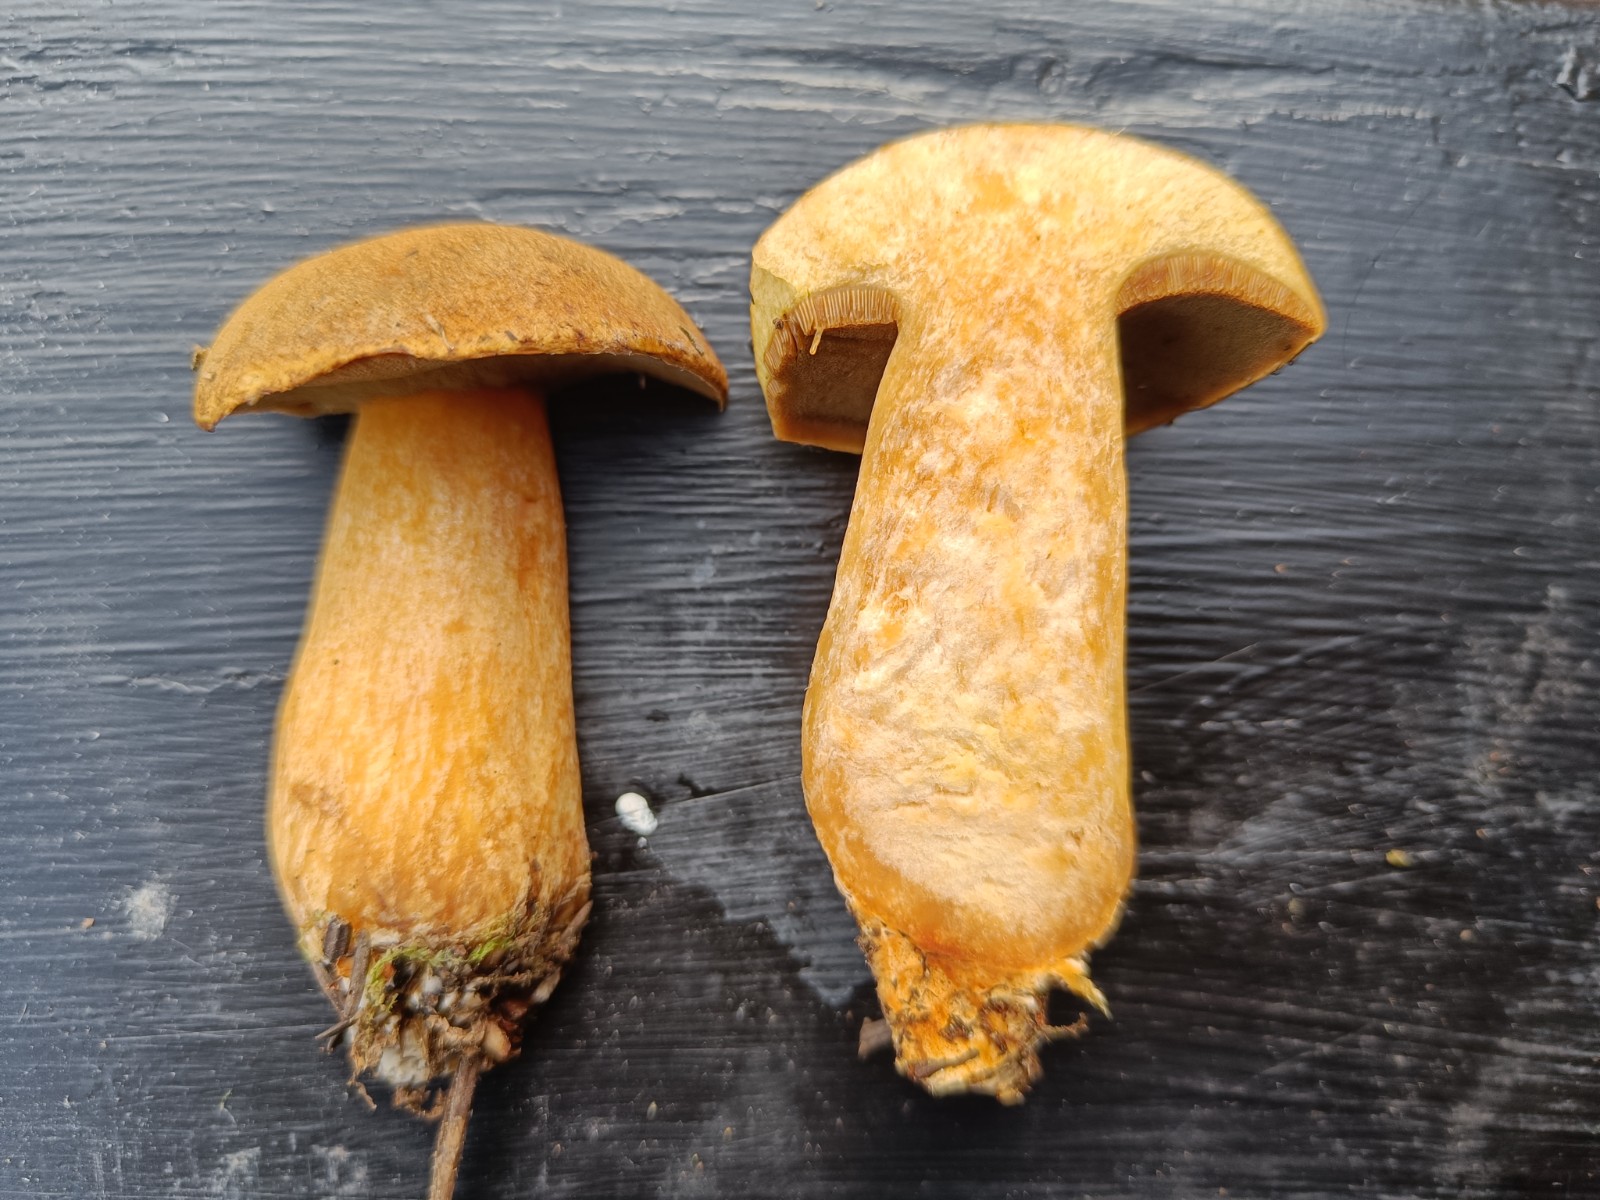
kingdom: Fungi
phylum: Basidiomycota
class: Agaricomycetes
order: Boletales
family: Suillaceae
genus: Suillus
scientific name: Suillus variegatus
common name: broget slimrørhat
